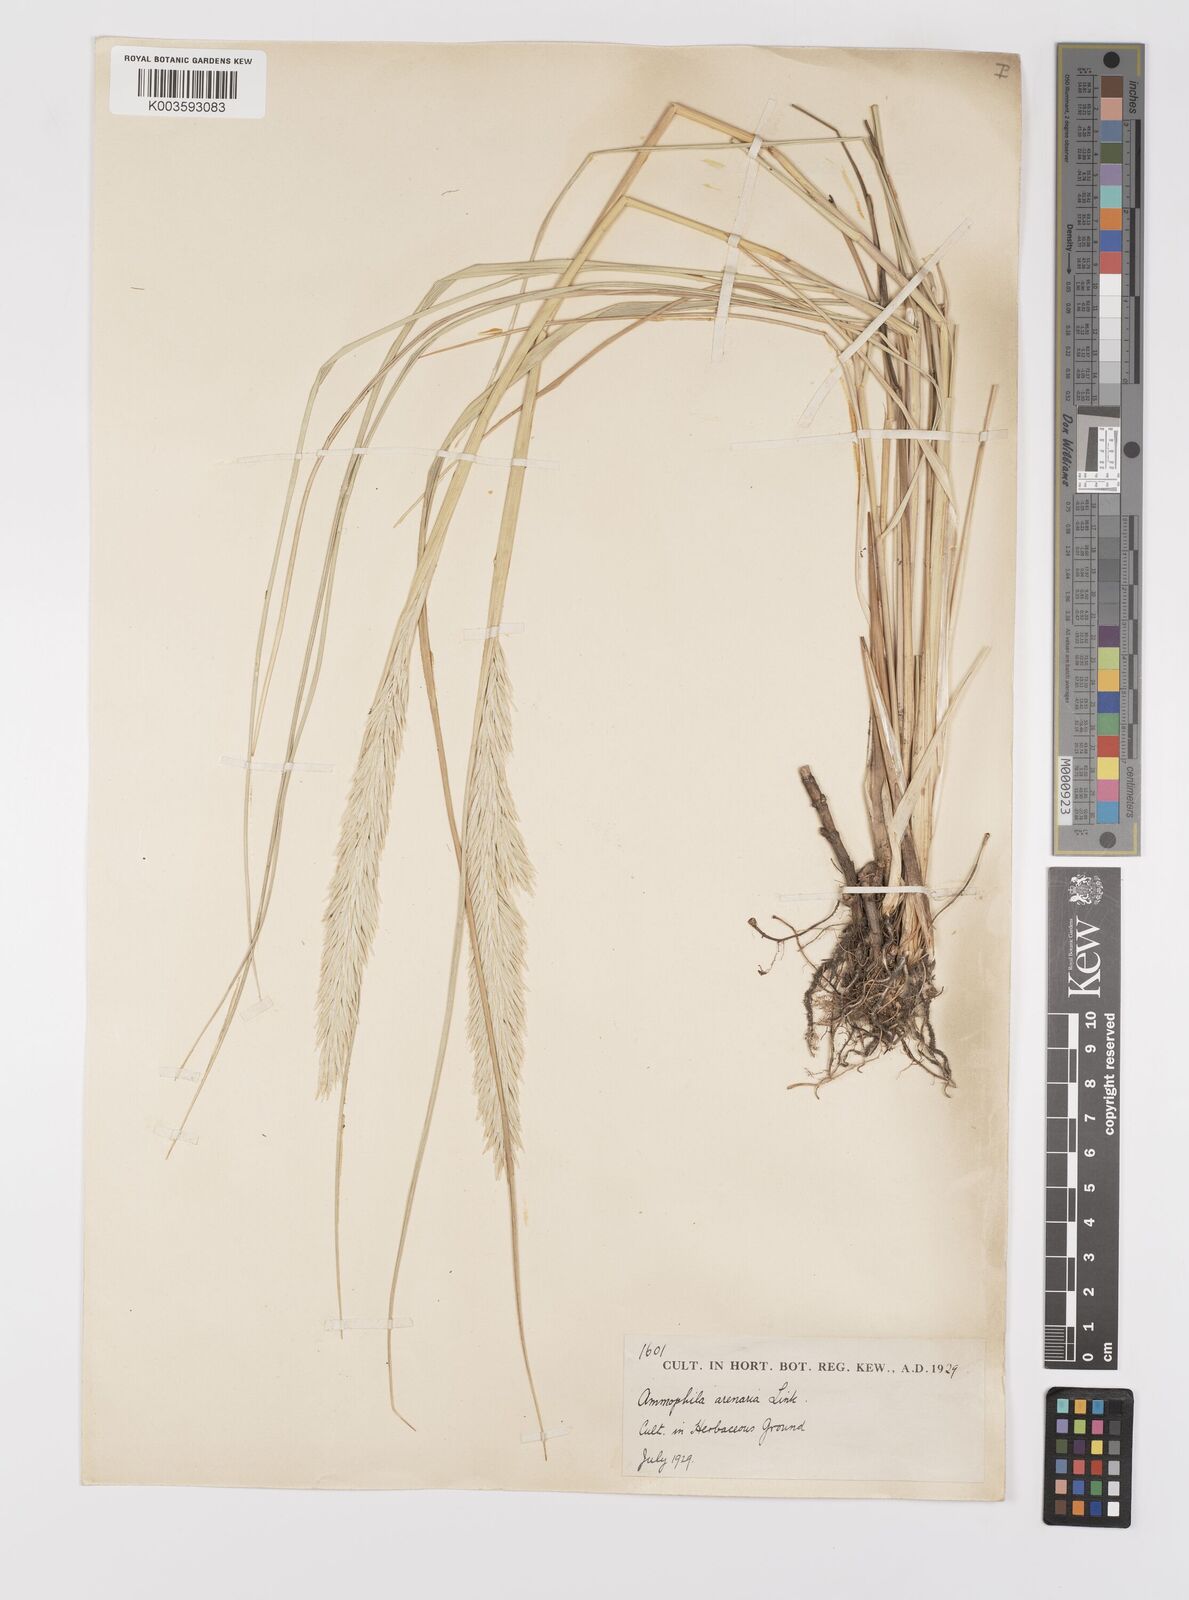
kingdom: Animalia
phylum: Arthropoda
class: Insecta
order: Hymenoptera
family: Sphecidae
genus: Ammophila
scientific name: Ammophila
